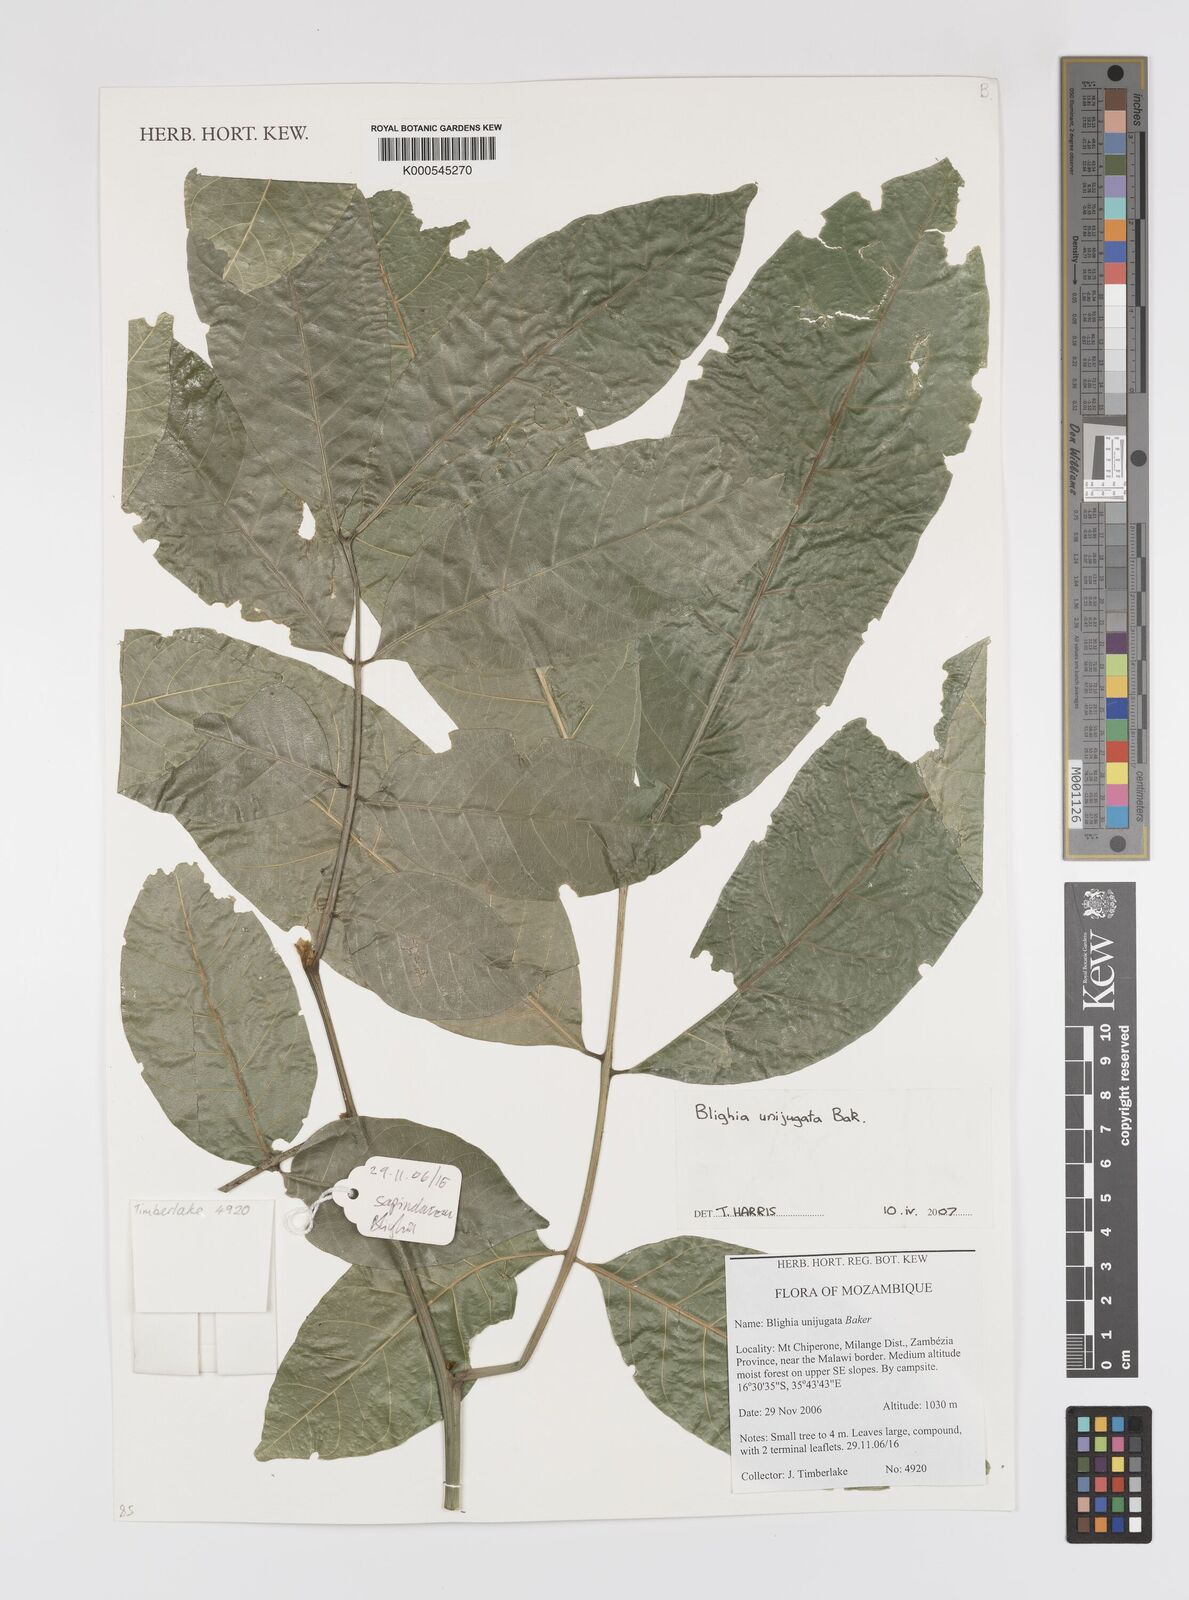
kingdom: Plantae
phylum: Tracheophyta
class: Magnoliopsida
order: Sapindales
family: Sapindaceae
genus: Blighia
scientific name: Blighia unijugata
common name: Triangle tops
